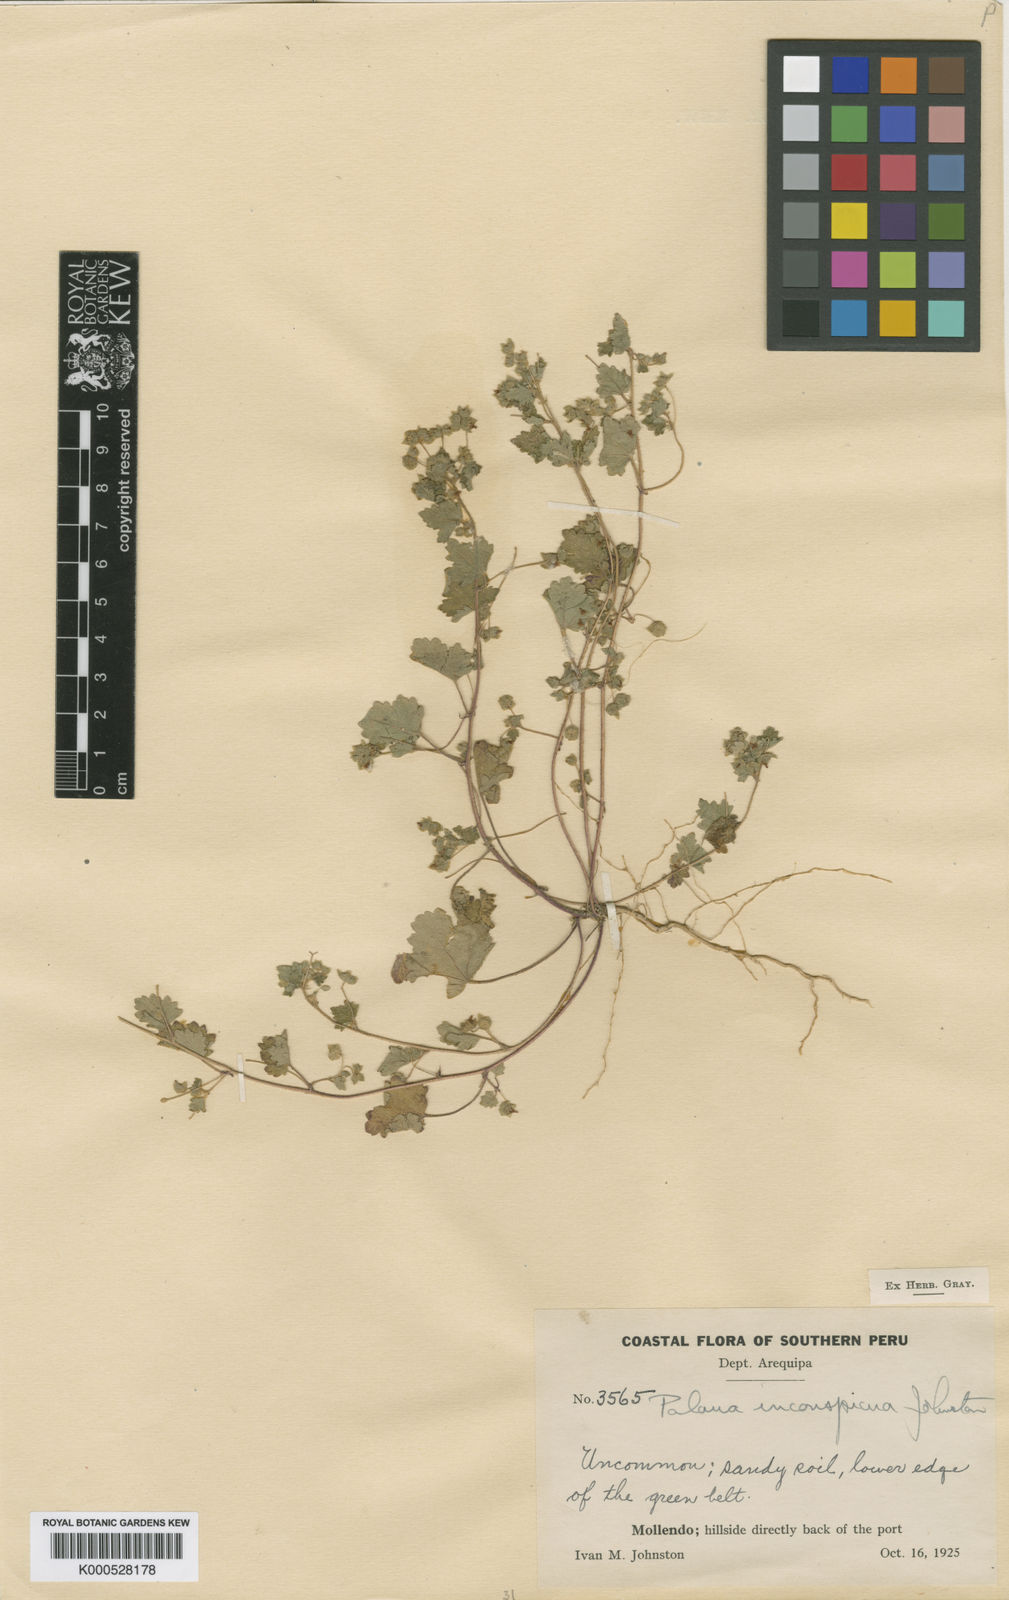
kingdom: Plantae
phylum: Tracheophyta
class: Magnoliopsida
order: Malvales
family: Malvaceae
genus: Palaua
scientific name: Palaua inconspicua
